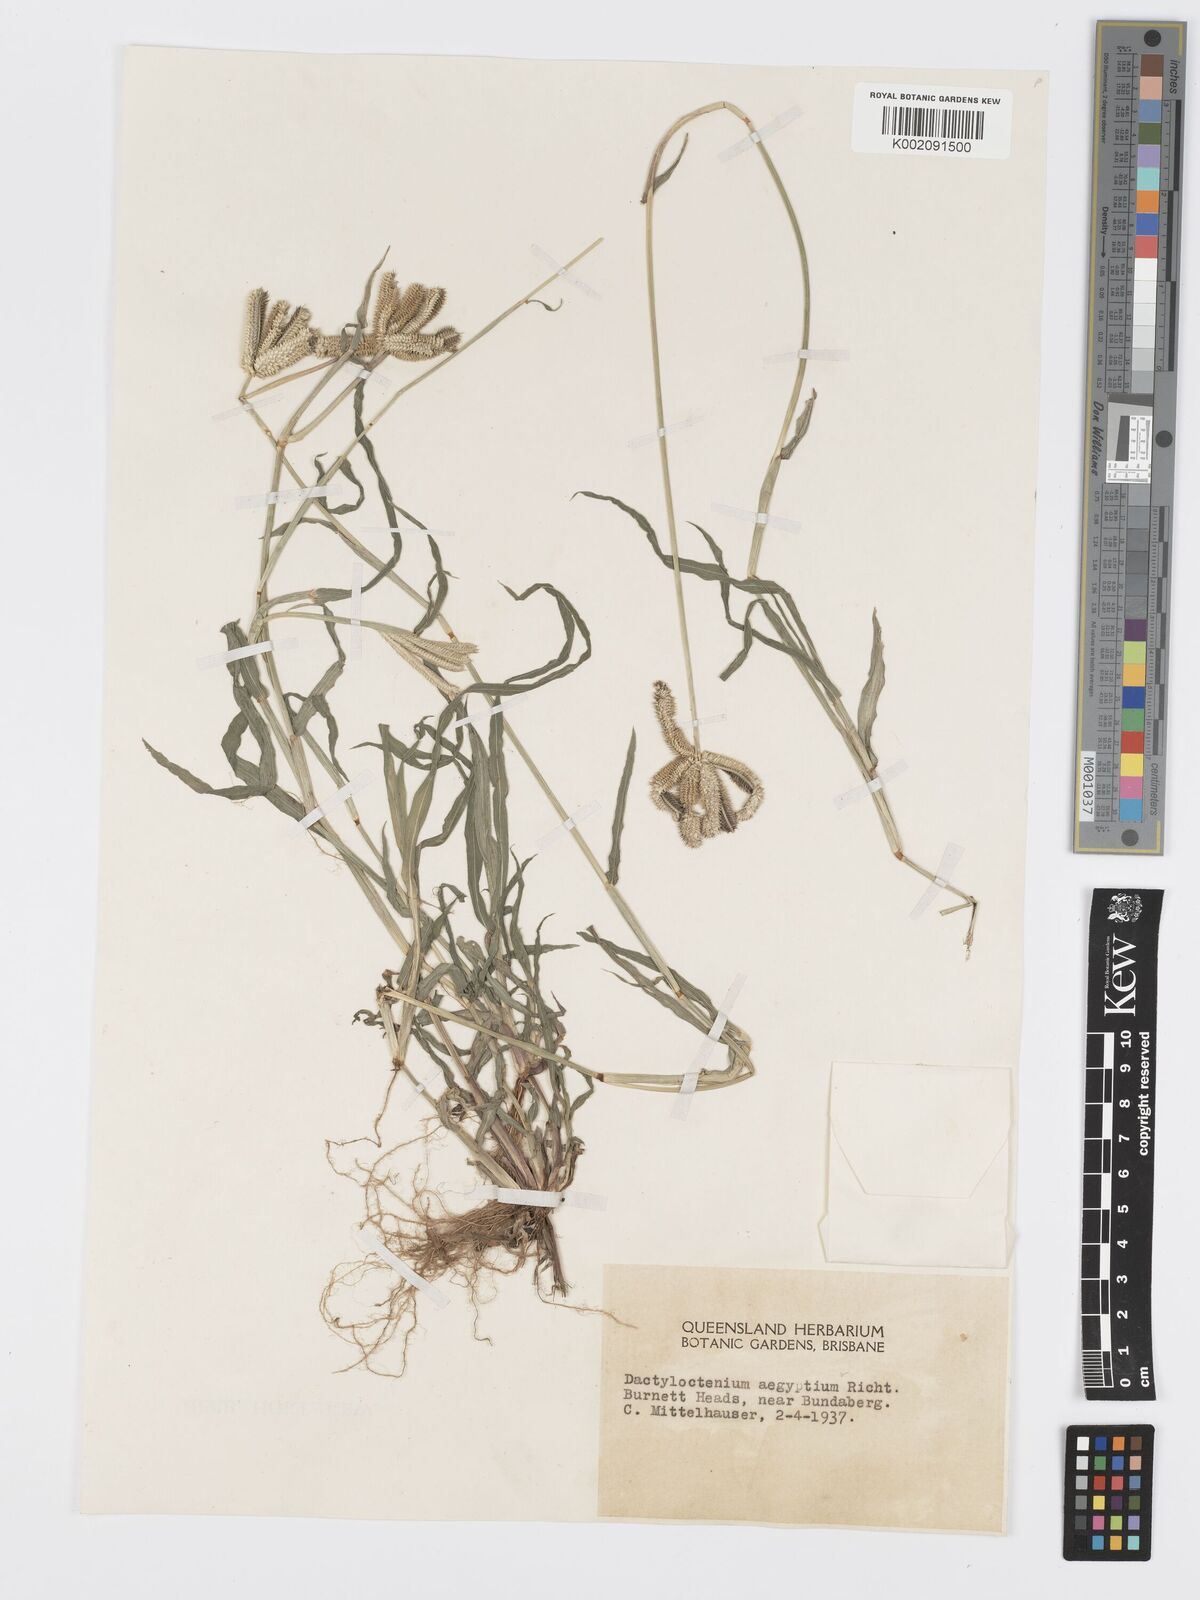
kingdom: Plantae
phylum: Tracheophyta
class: Liliopsida
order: Poales
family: Poaceae
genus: Dactyloctenium
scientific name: Dactyloctenium aegyptium
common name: Egyptian grass
